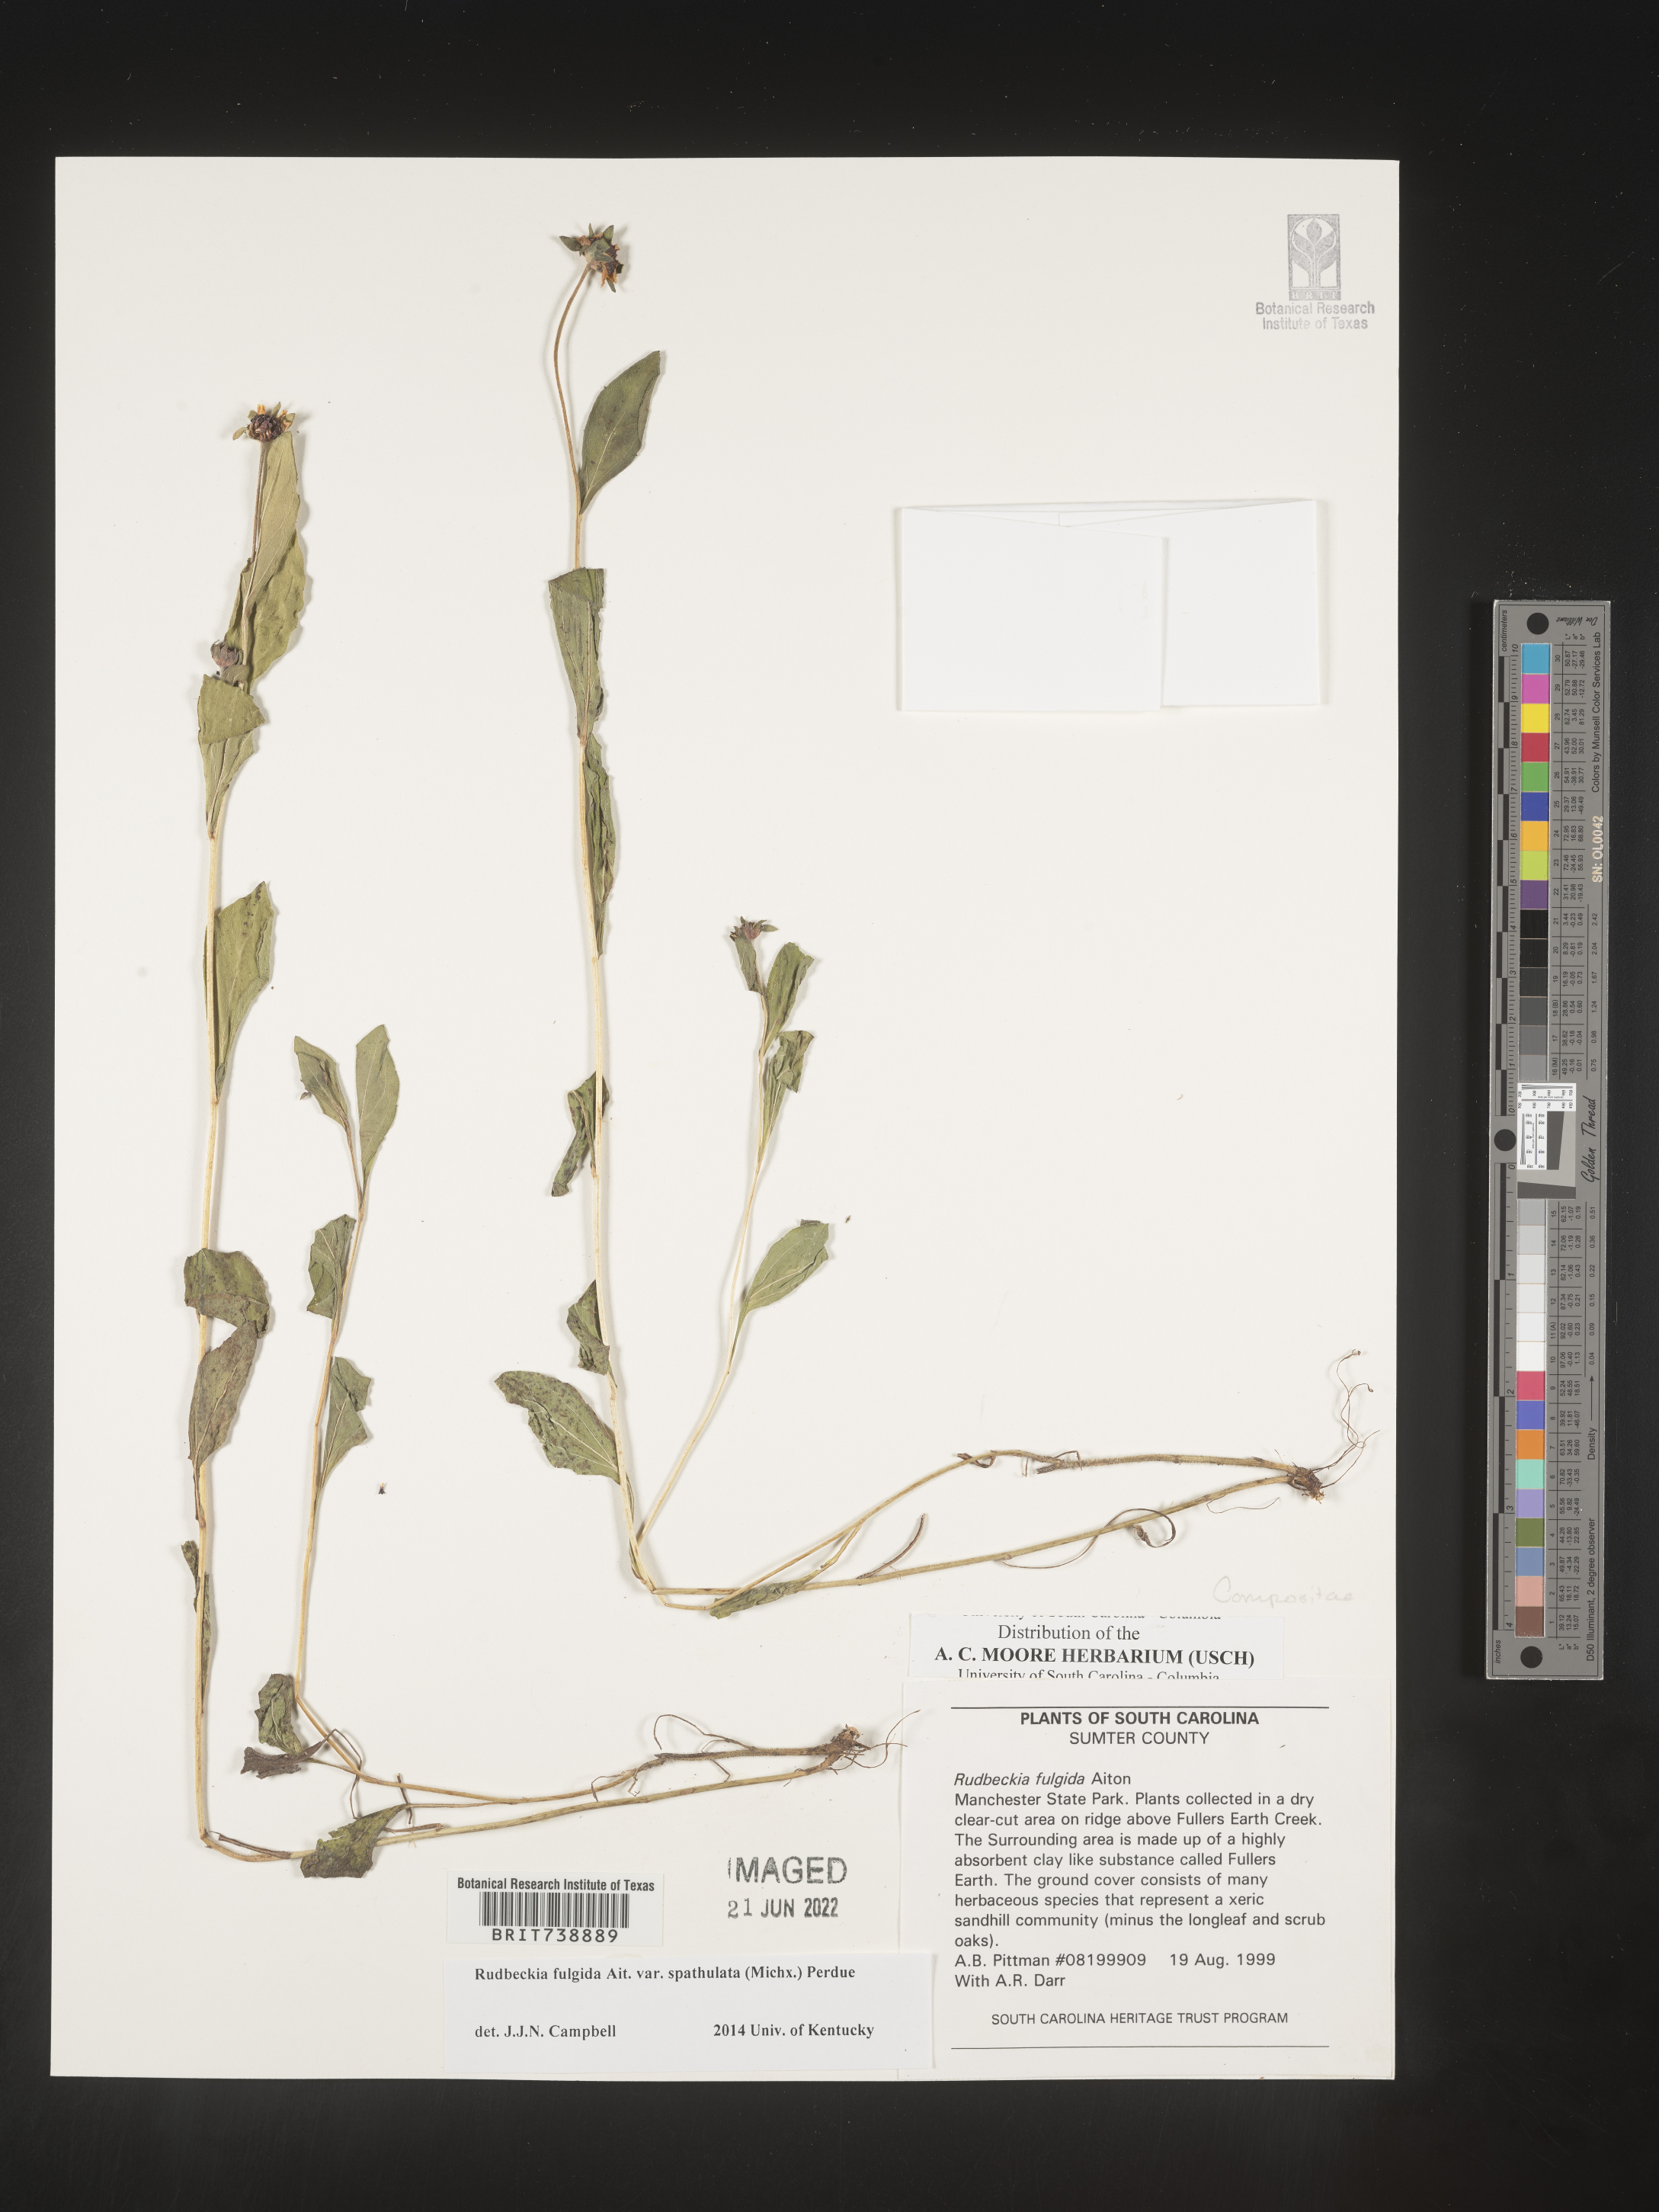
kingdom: Plantae
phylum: Tracheophyta
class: Magnoliopsida
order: Asterales
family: Asteraceae
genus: Rudbeckia
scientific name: Rudbeckia fulgida
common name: Perennial coneflower
